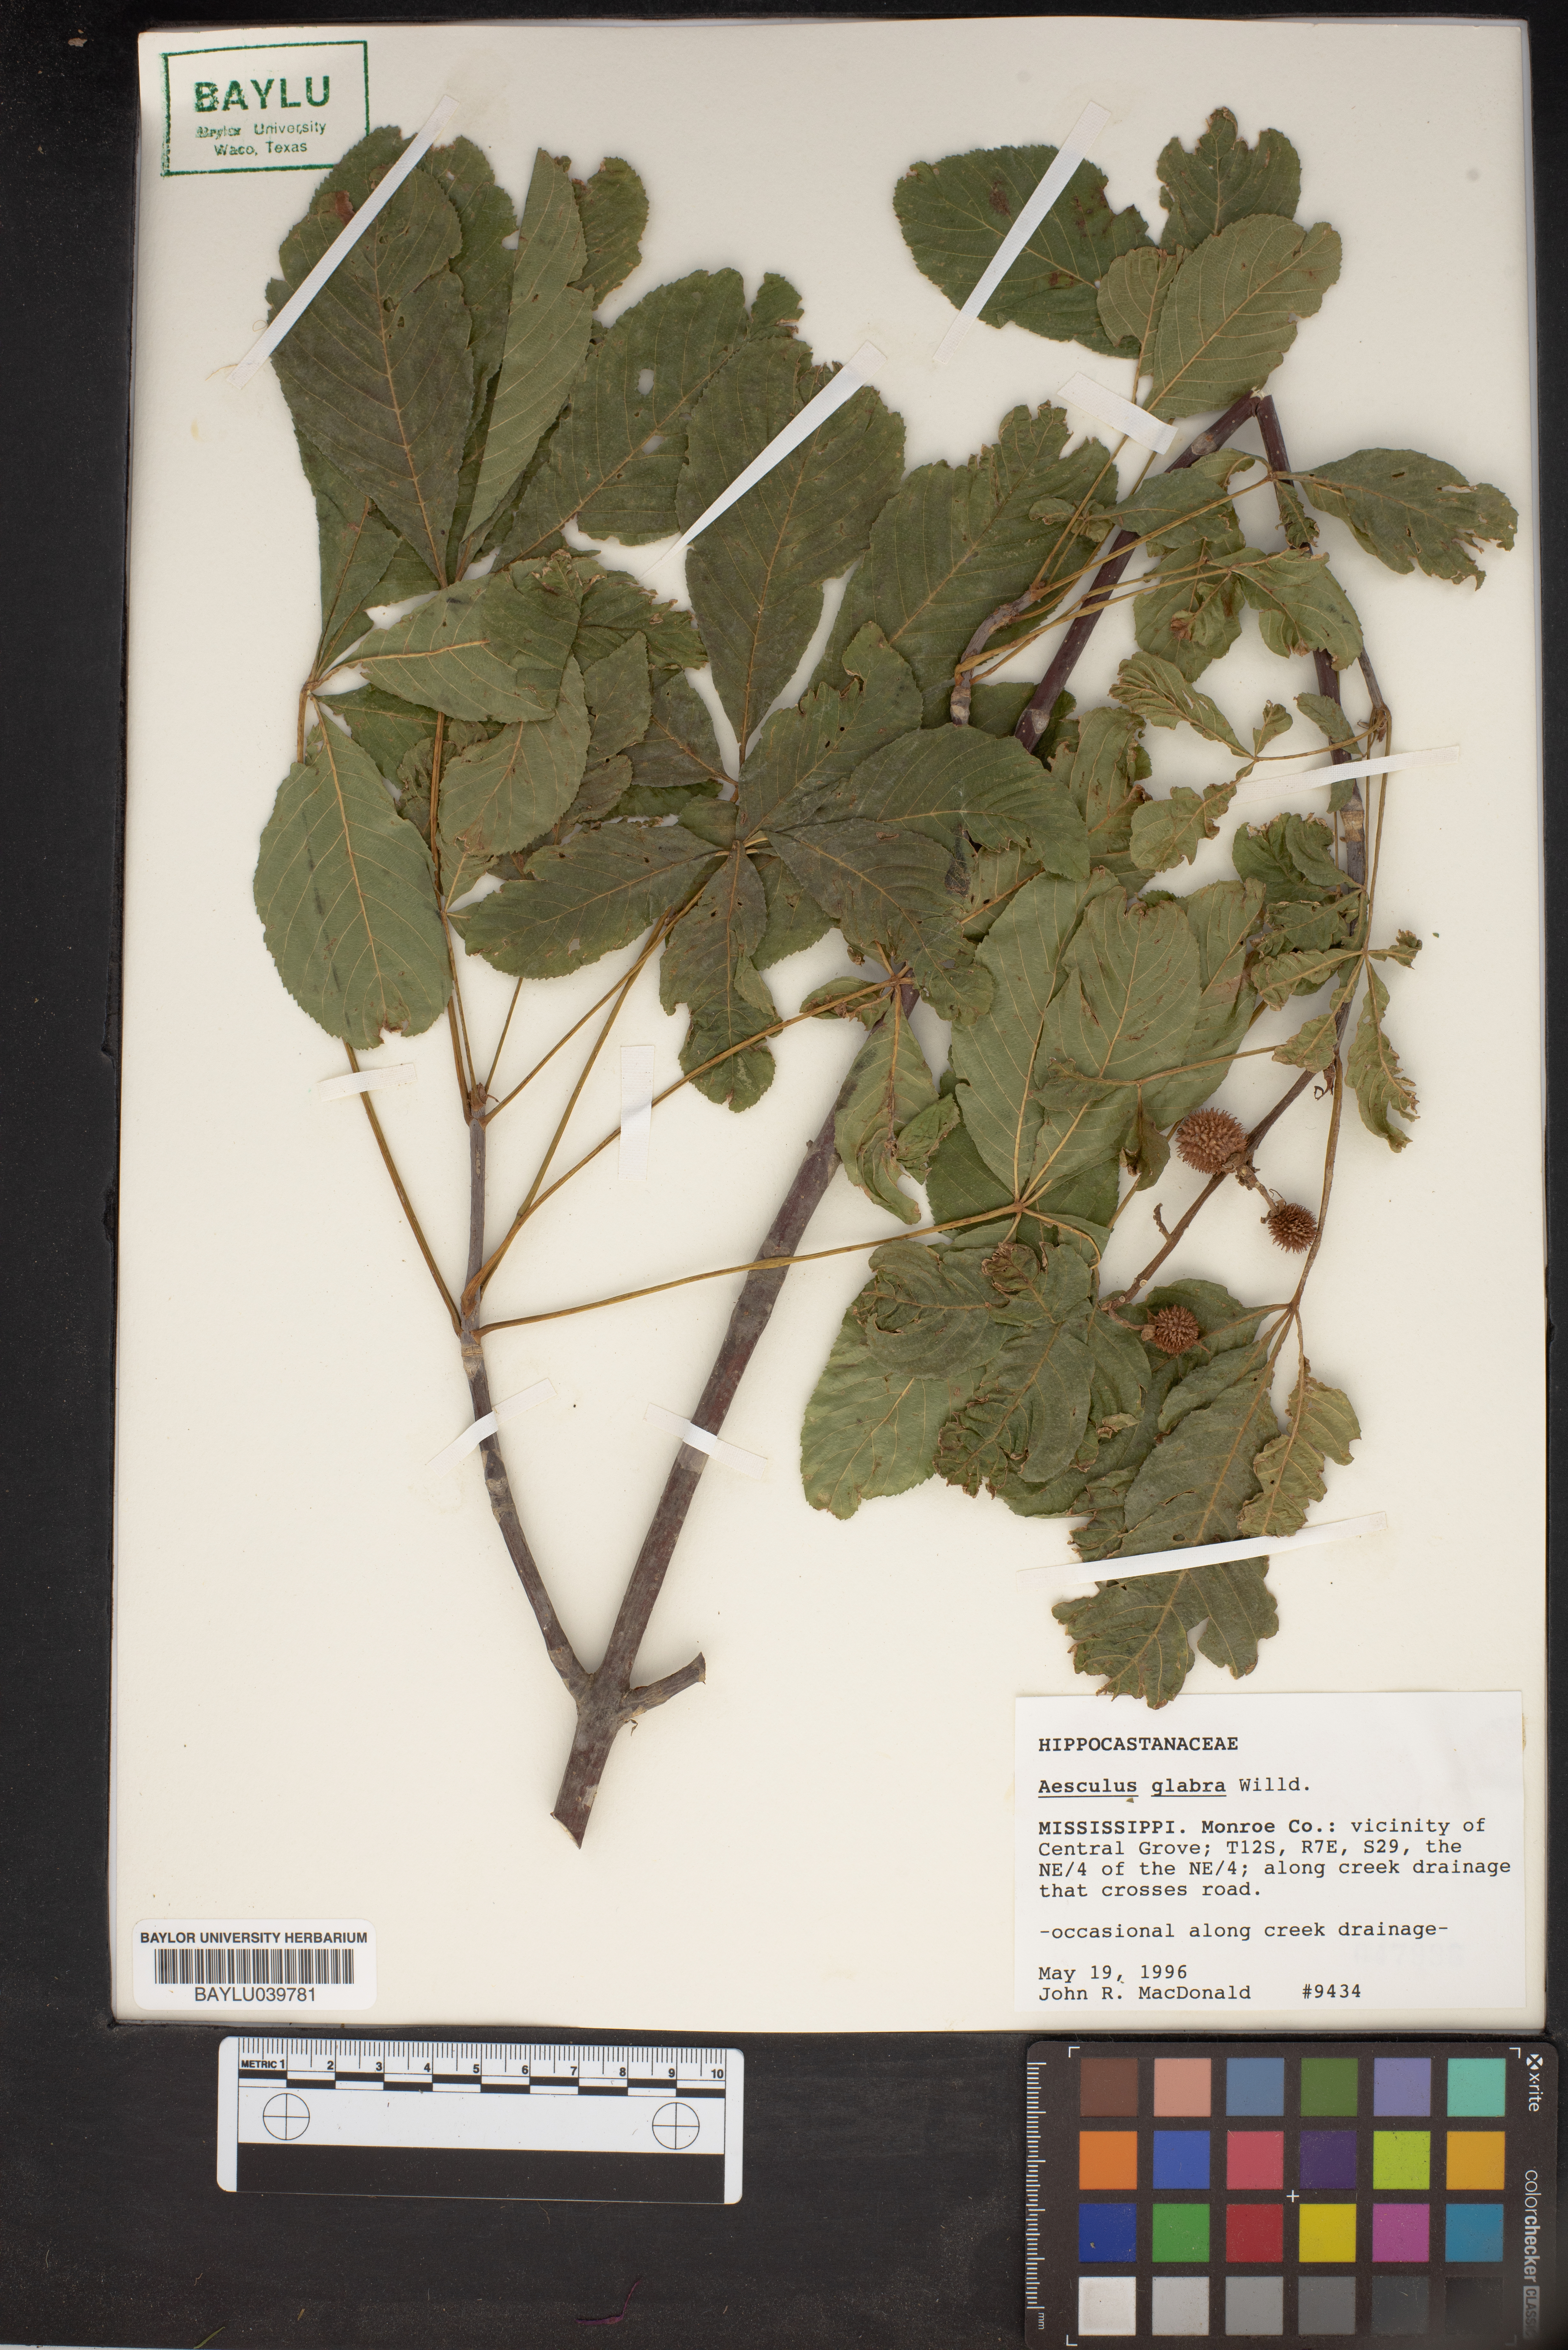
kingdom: Plantae
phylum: Tracheophyta
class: Magnoliopsida
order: Sapindales
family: Sapindaceae
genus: Aesculus
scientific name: Aesculus glabra
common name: Ohio buckeye
